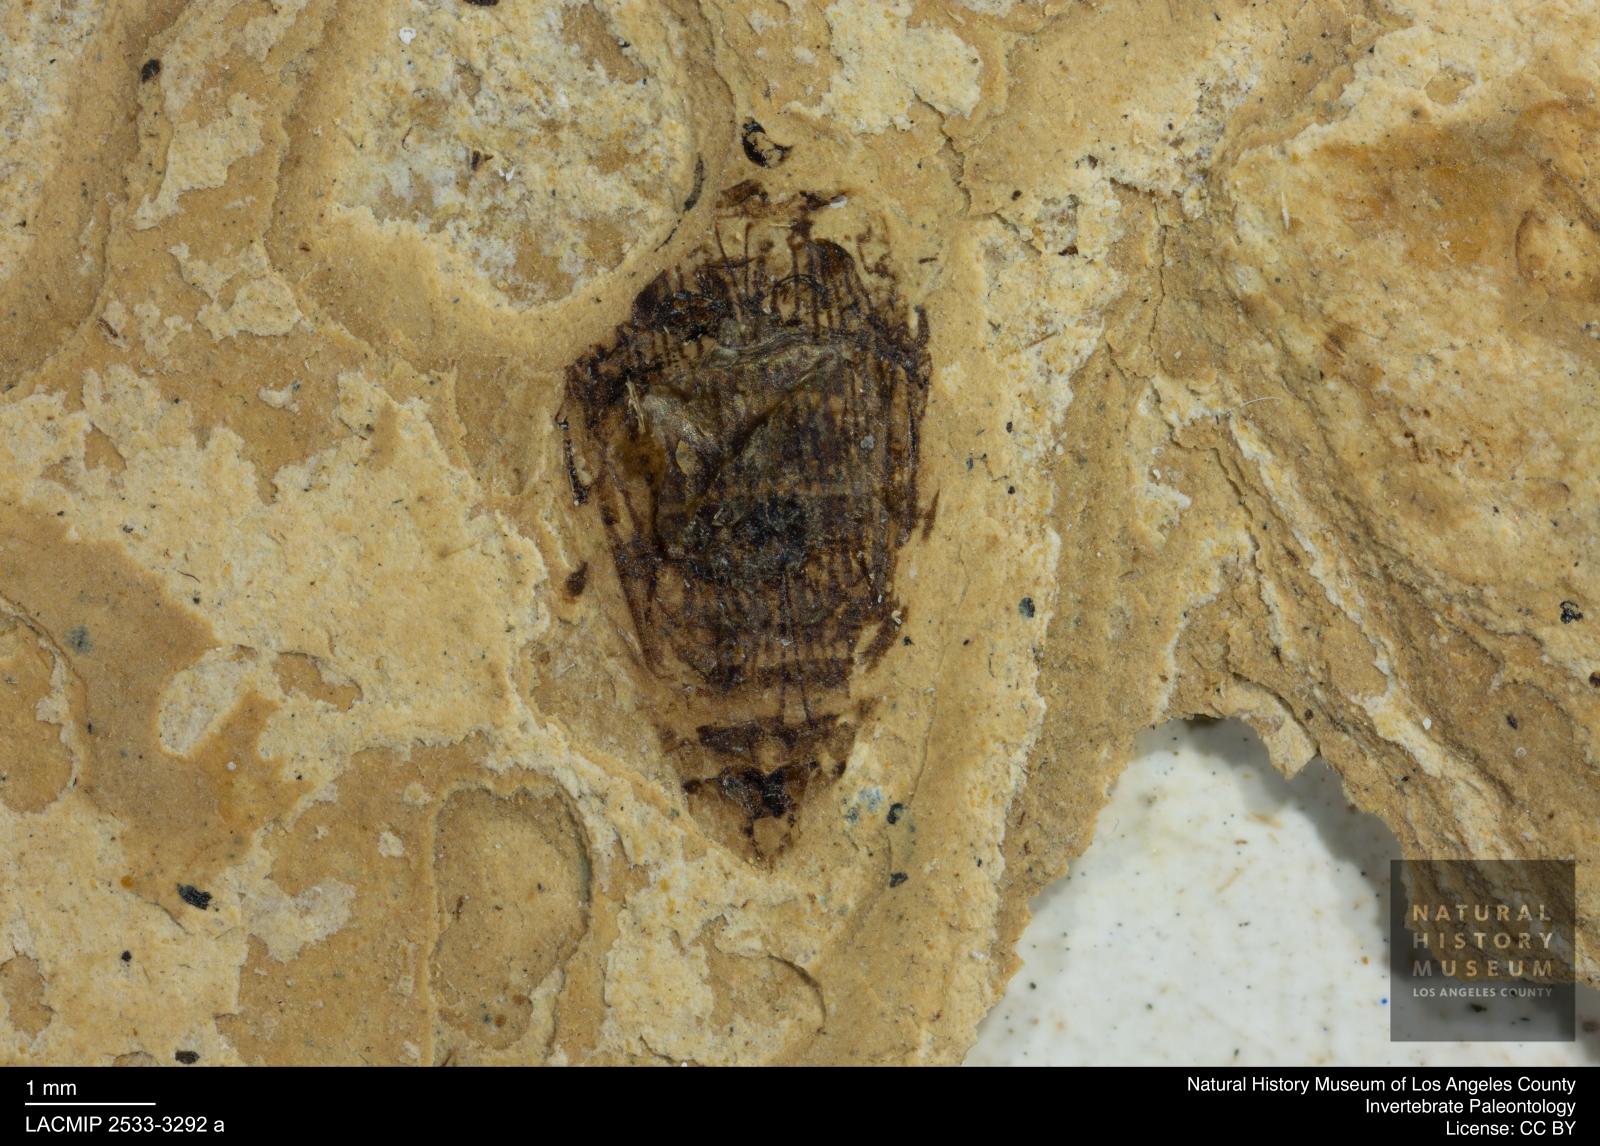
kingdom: Animalia
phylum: Arthropoda
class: Insecta
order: Coleoptera
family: Dytiscidae
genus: Laccophilus
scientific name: Laccophilus Palaeogyrinus strigatus
